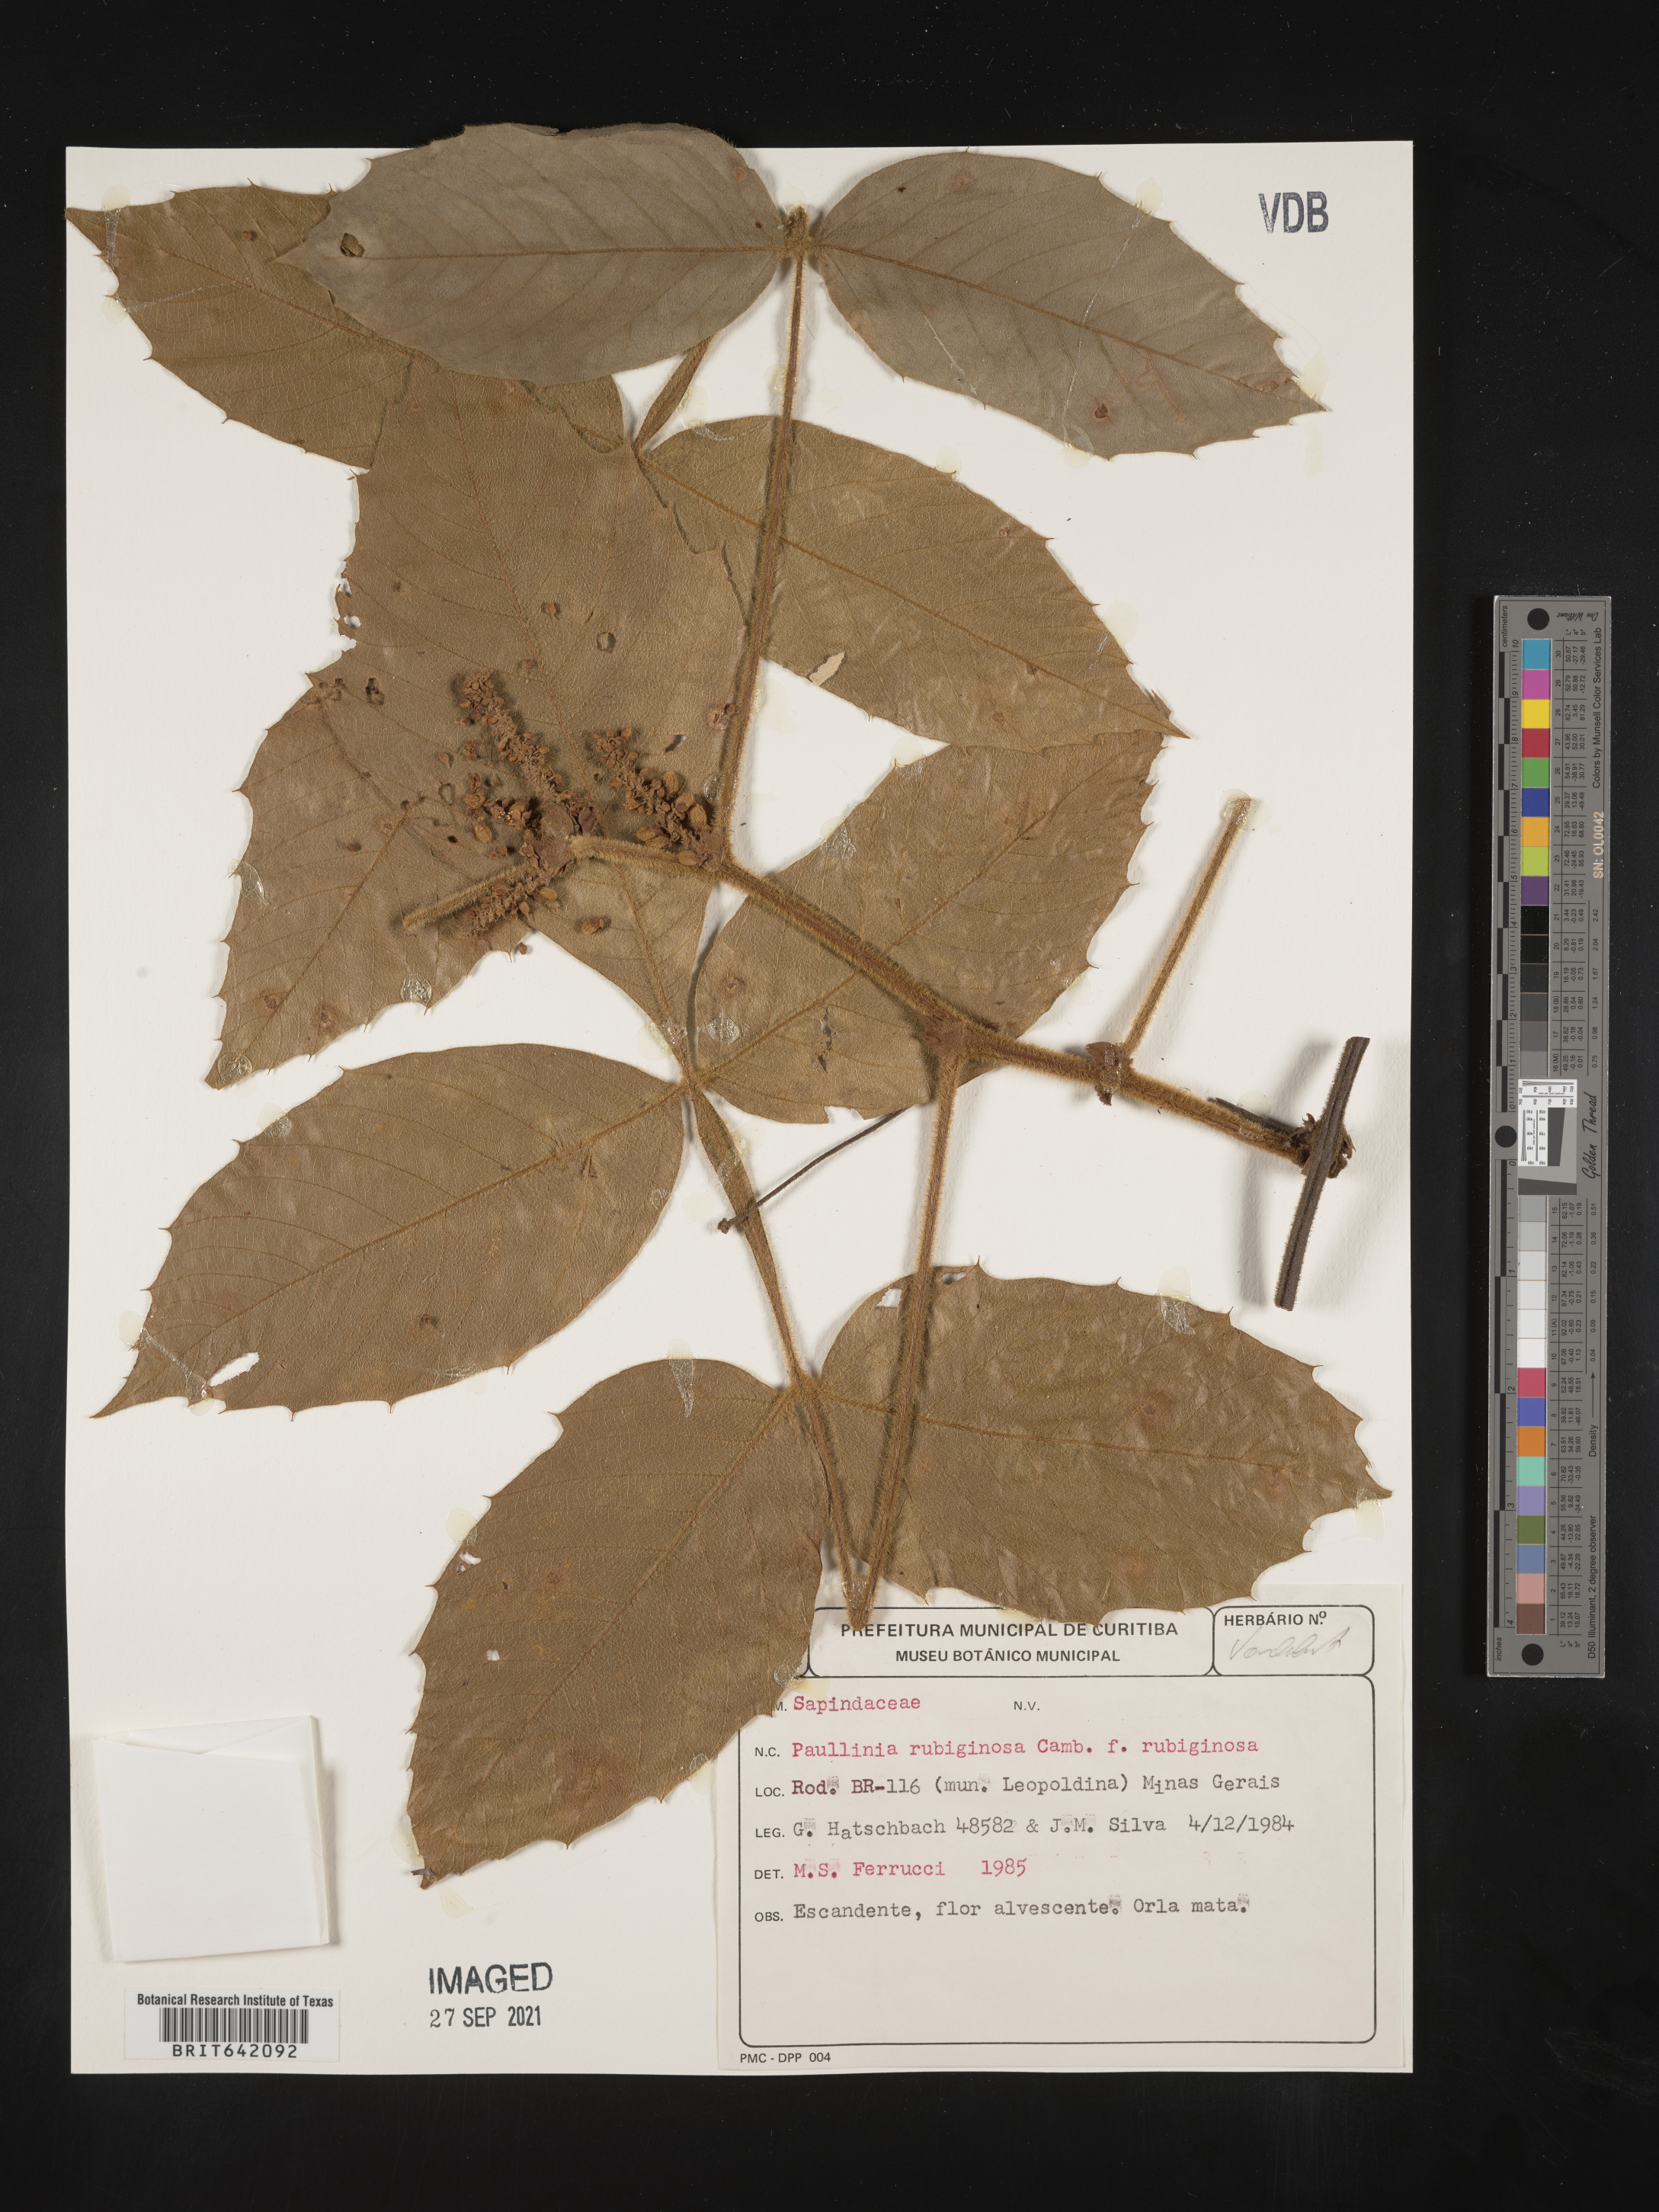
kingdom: Plantae
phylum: Tracheophyta
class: Magnoliopsida
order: Sapindales
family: Sapindaceae
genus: Paullinia
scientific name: Paullinia
